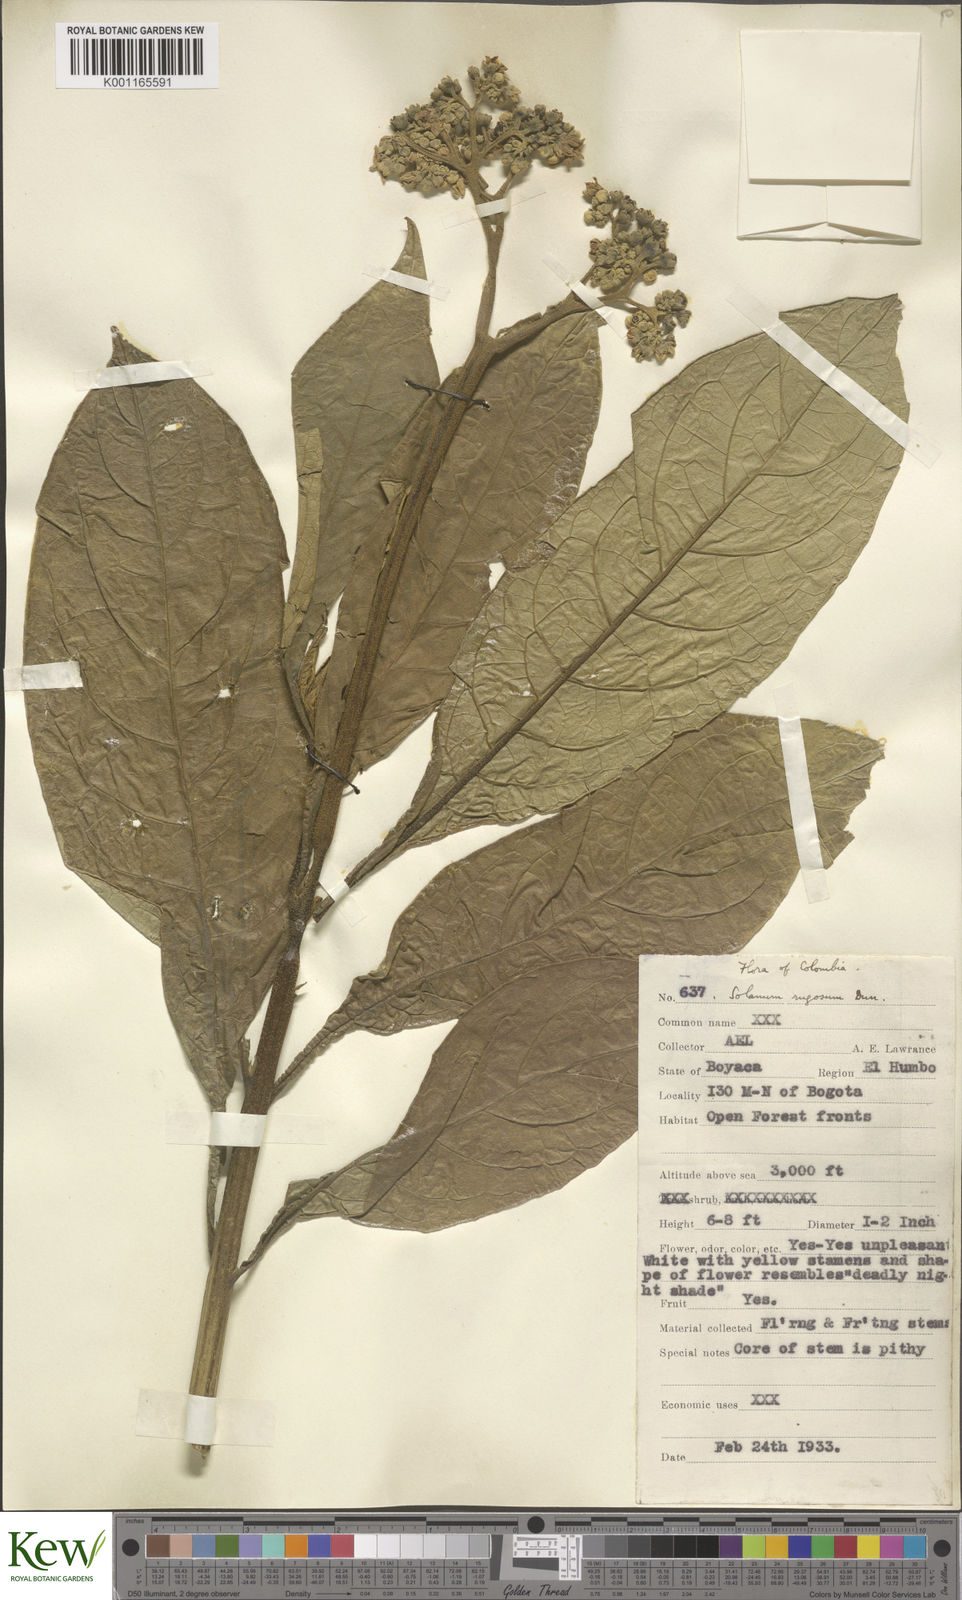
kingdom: Plantae
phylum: Tracheophyta
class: Magnoliopsida
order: Solanales
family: Solanaceae
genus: Solanum
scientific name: Solanum rugosum
